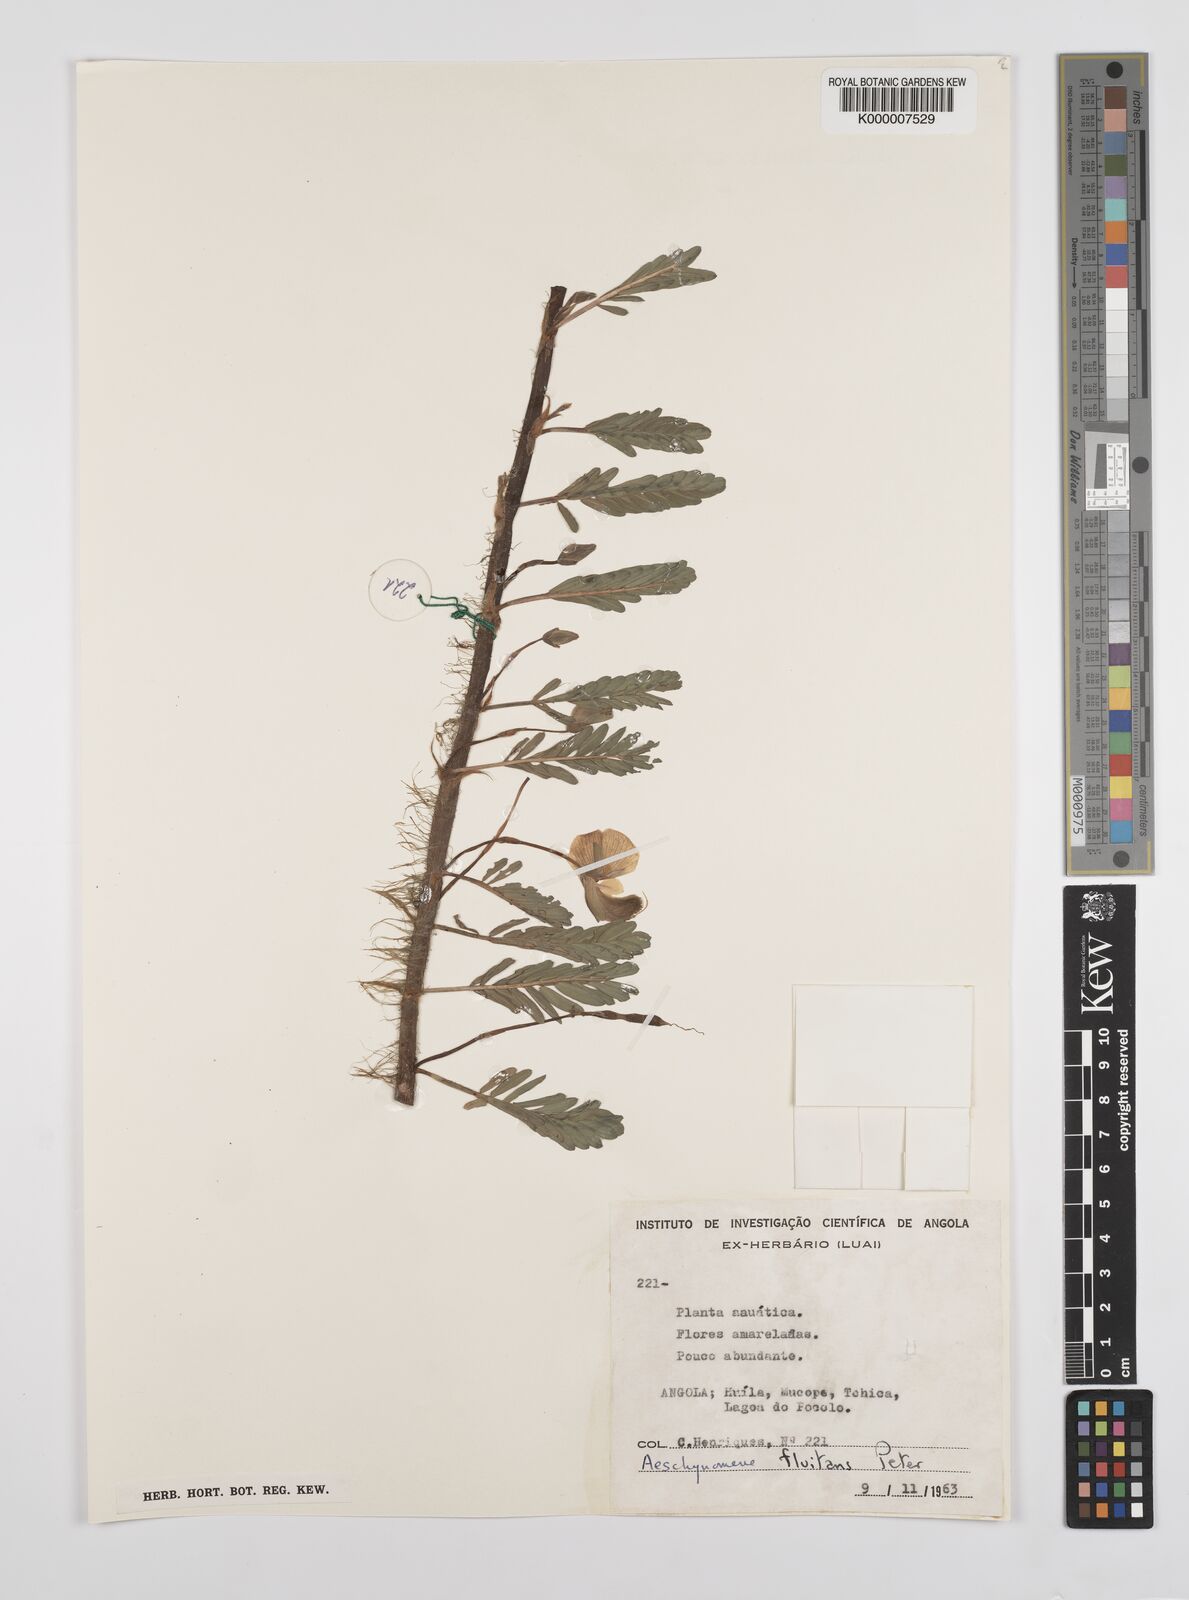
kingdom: Plantae
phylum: Tracheophyta
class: Magnoliopsida
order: Fabales
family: Fabaceae
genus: Aeschynomene
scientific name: Aeschynomene fluitans
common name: Giant water sensitive plant
